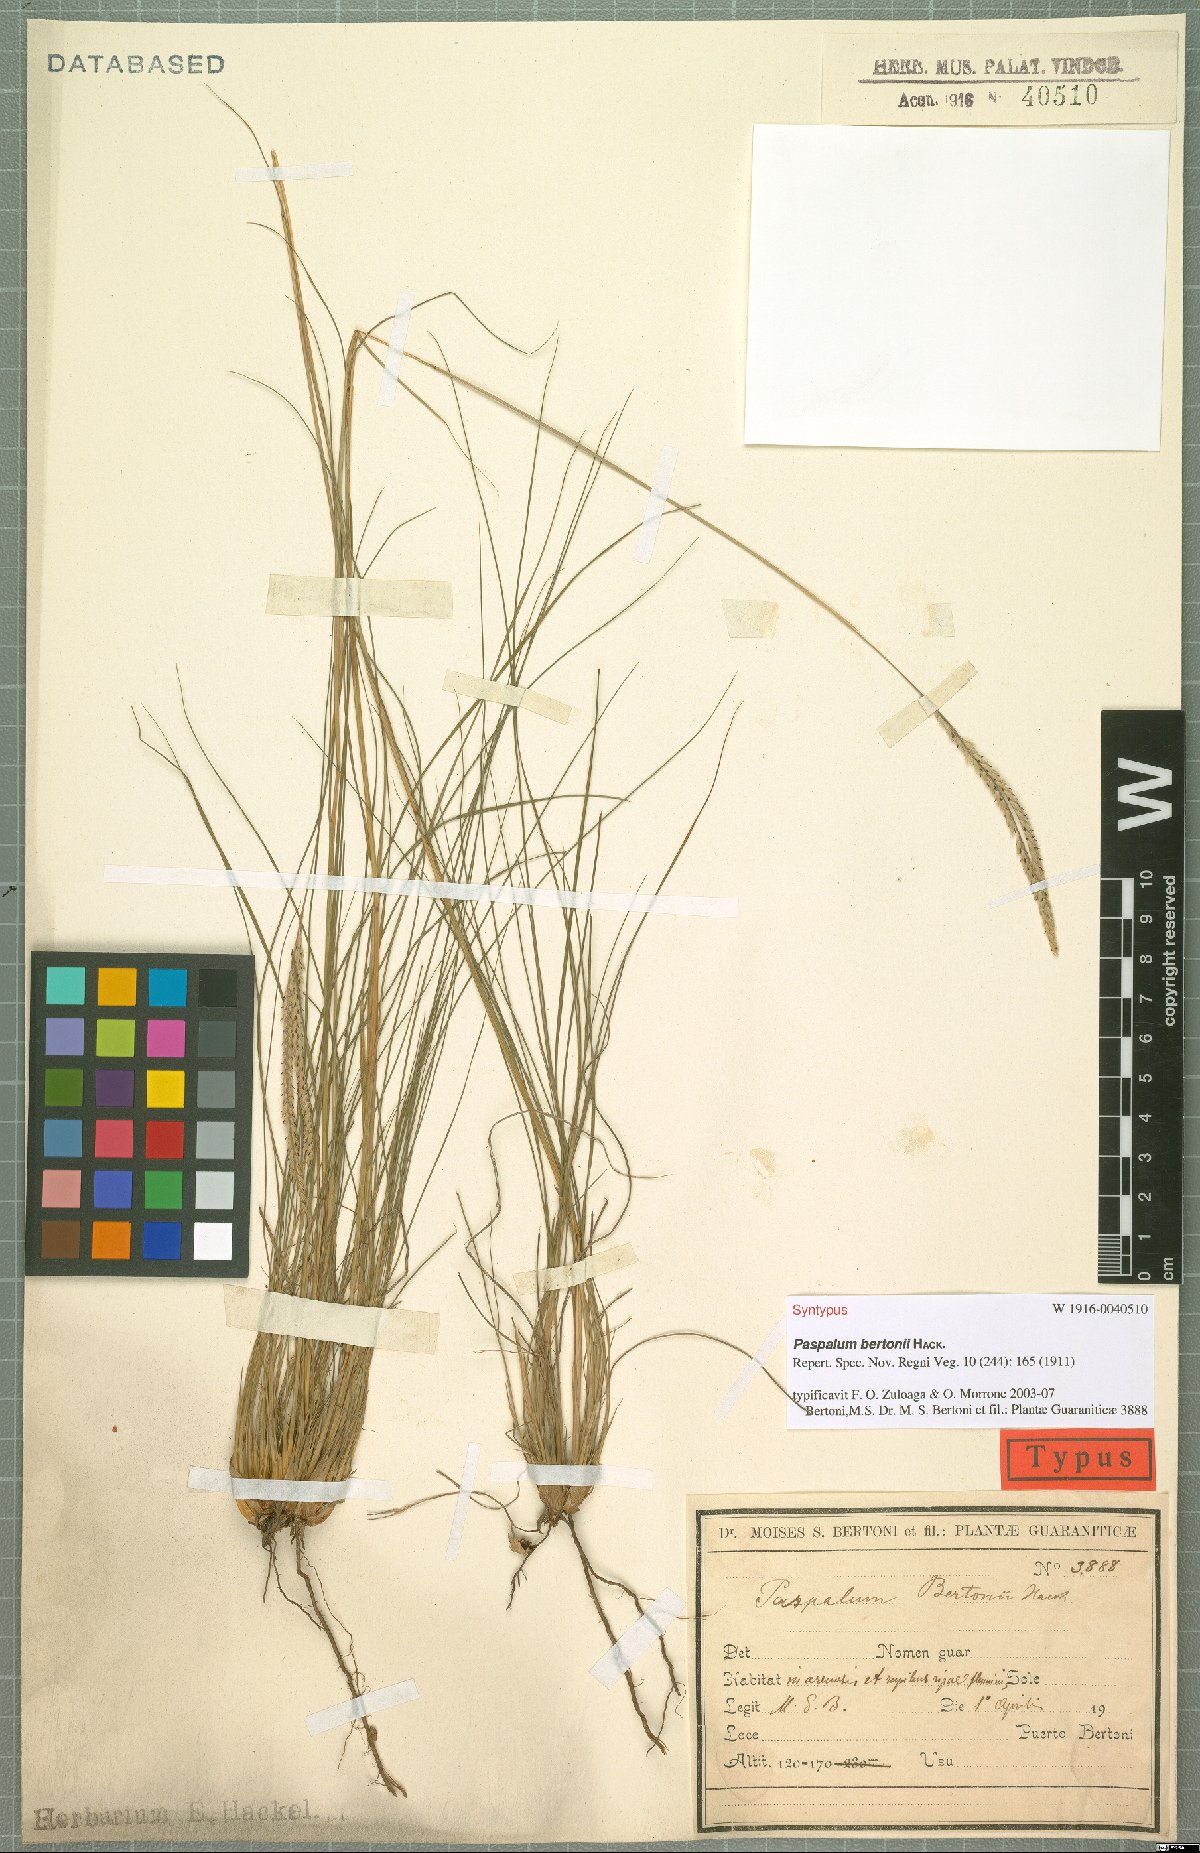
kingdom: Plantae
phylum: Tracheophyta
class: Liliopsida
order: Poales
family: Poaceae
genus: Paspalum
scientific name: Paspalum bertonii
